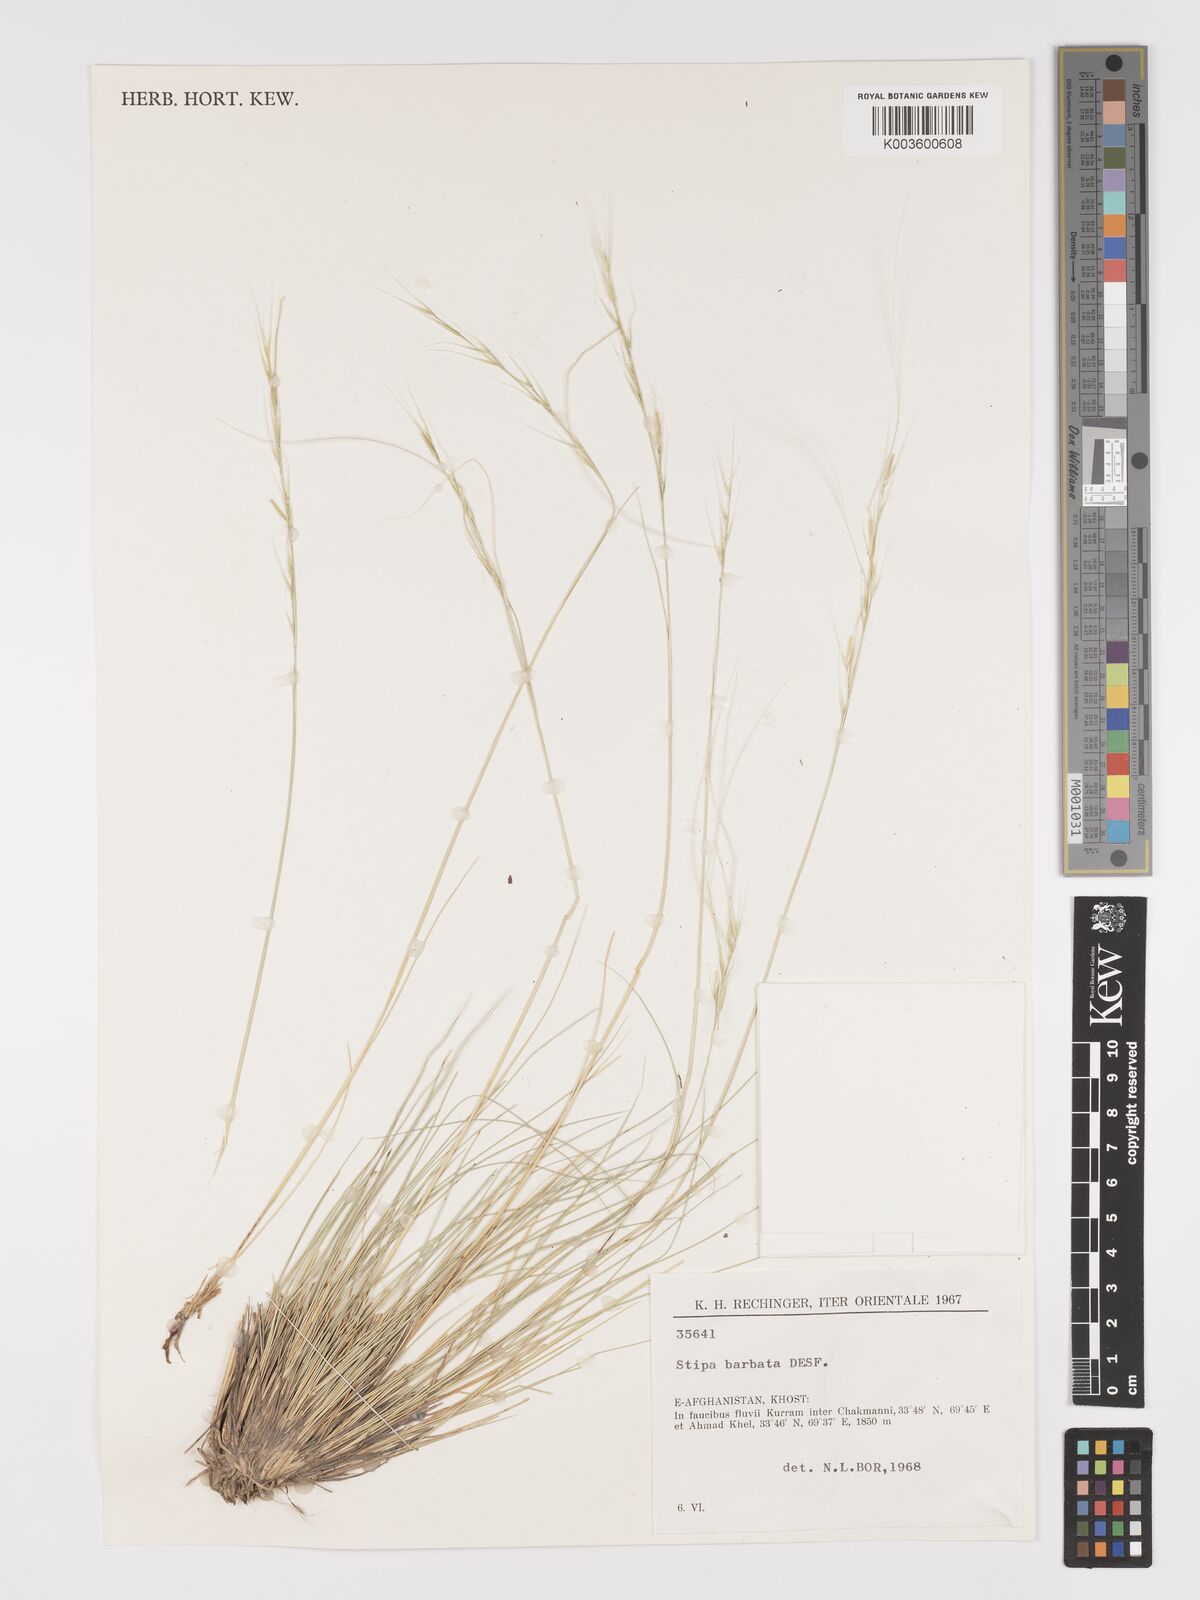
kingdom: Plantae
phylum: Tracheophyta
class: Liliopsida
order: Poales
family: Poaceae
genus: Stipa
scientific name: Stipa barbata
